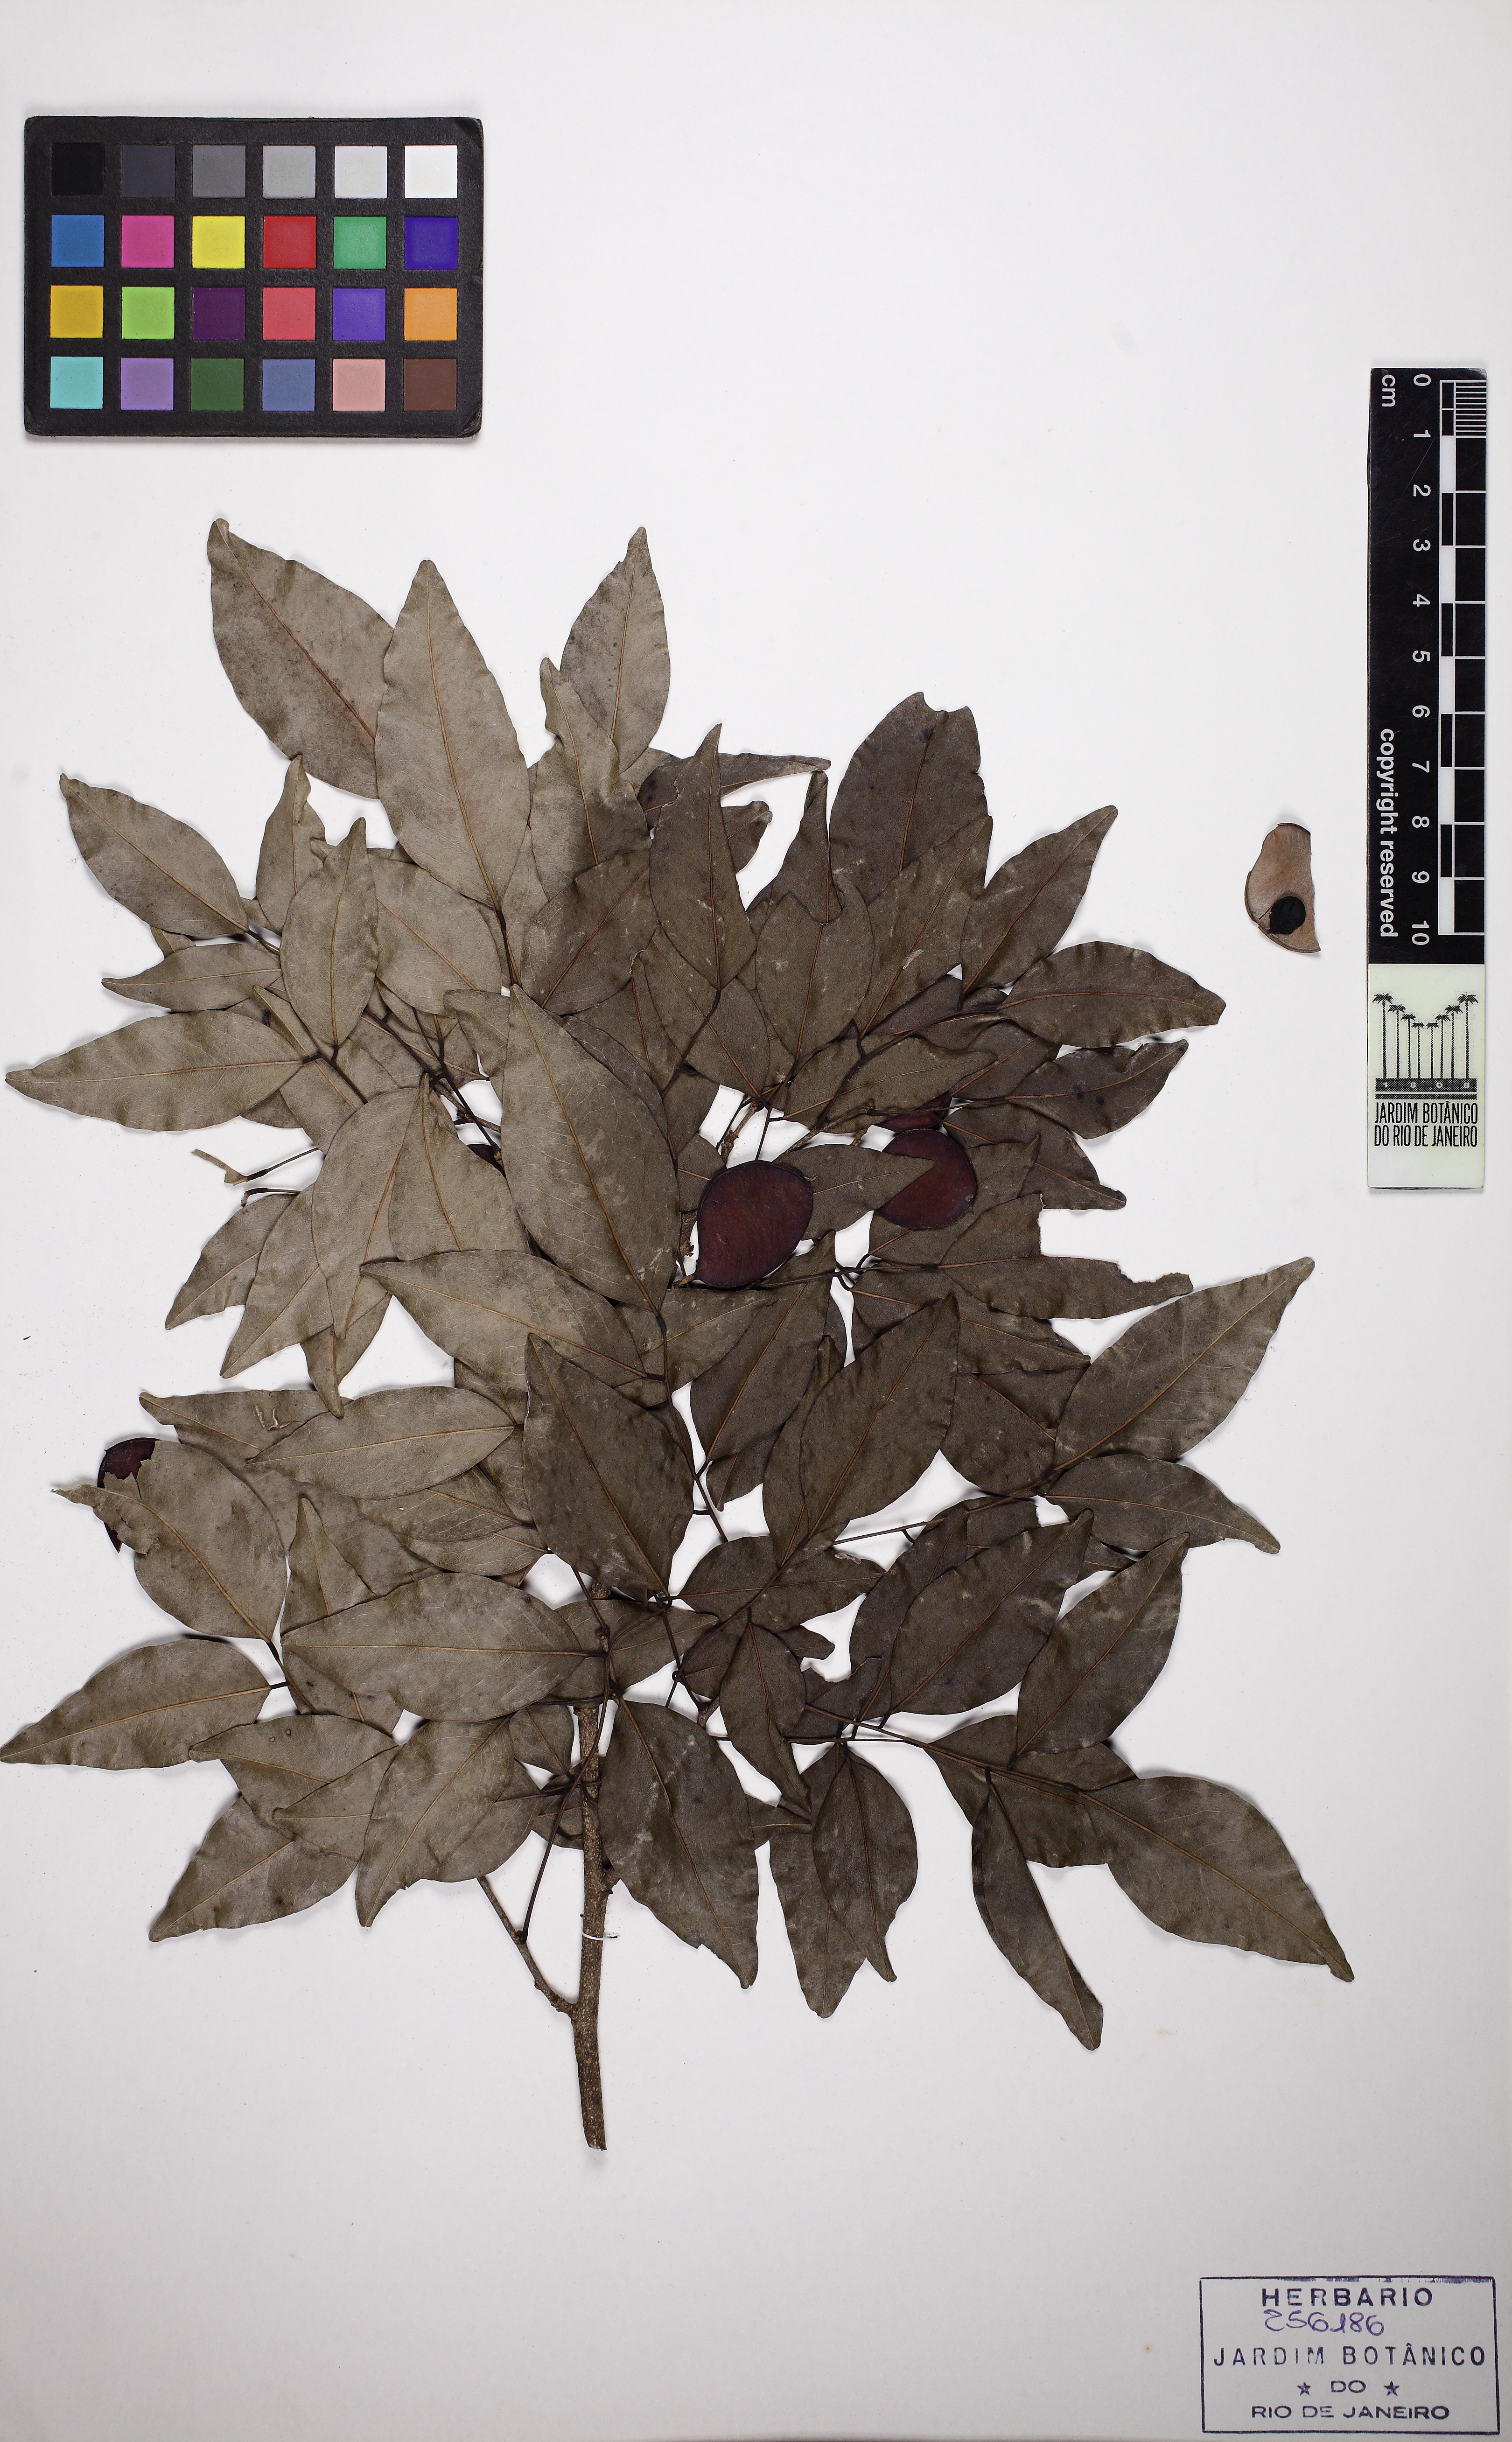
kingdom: Plantae
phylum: Tracheophyta
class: Magnoliopsida
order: Fabales
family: Fabaceae
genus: Poecilanthe
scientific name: Poecilanthe parviflora
